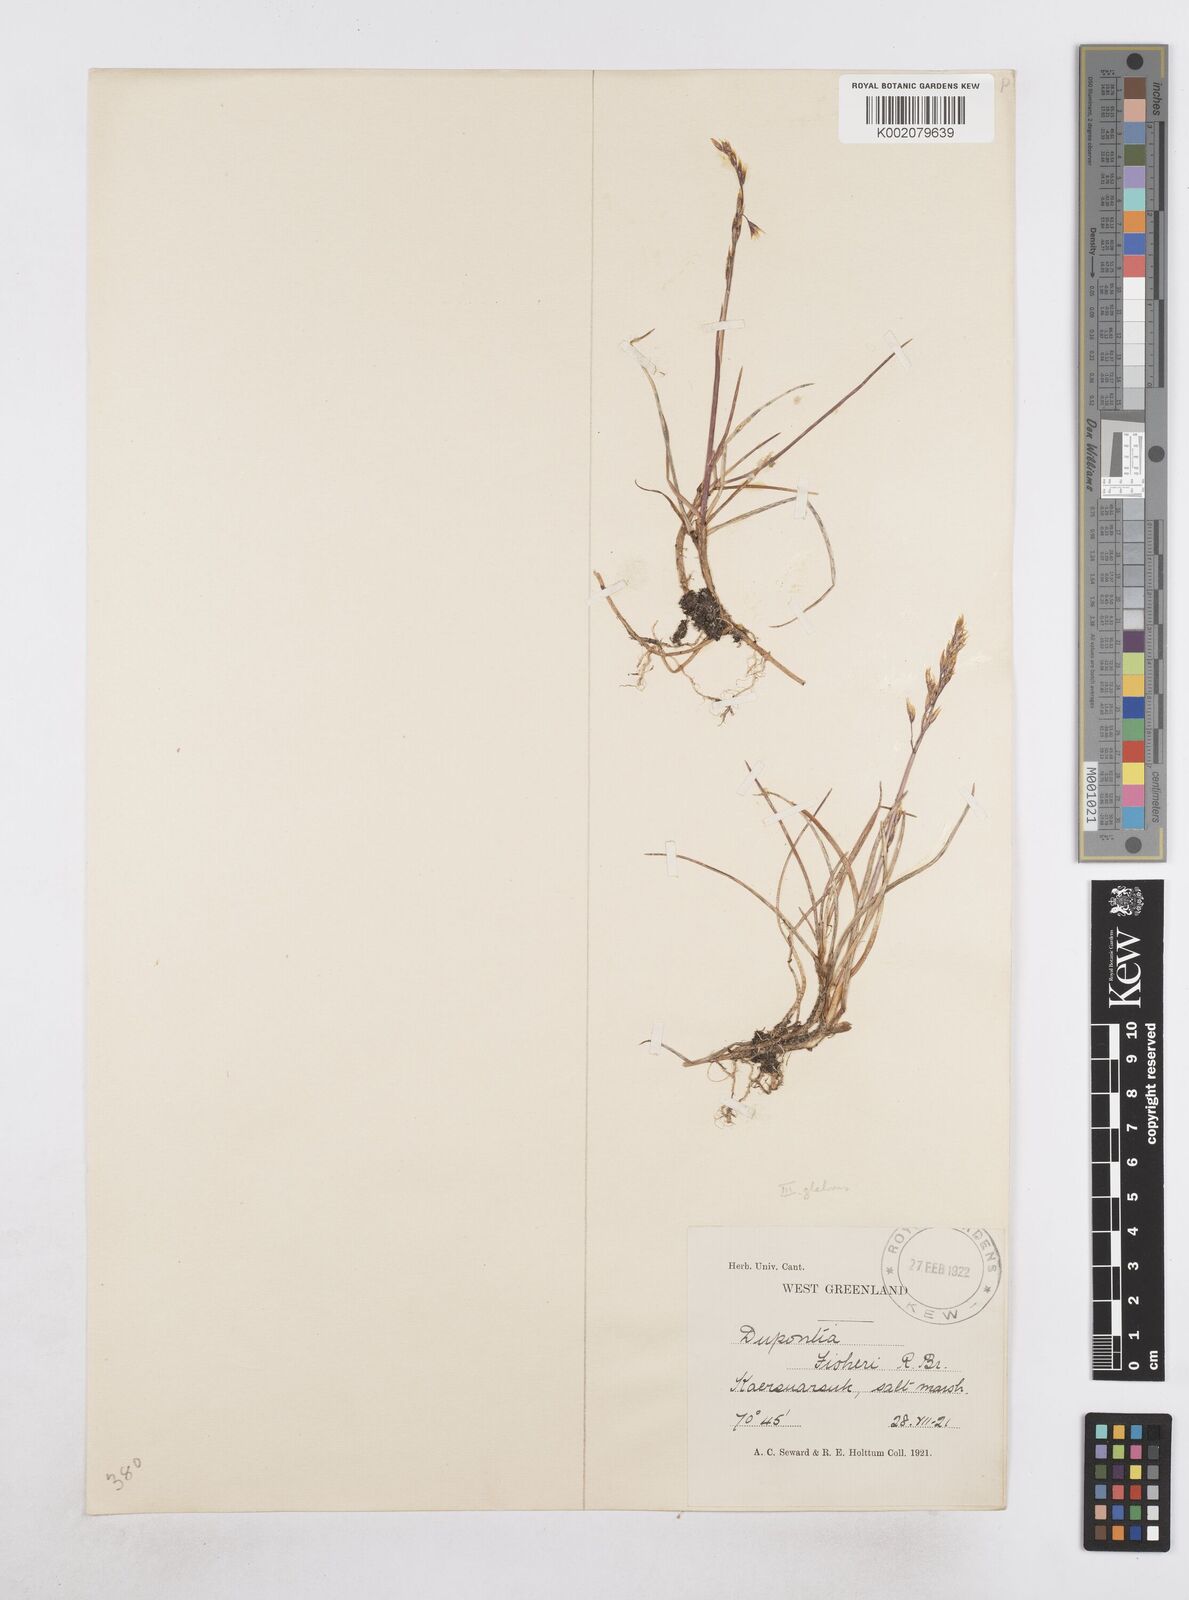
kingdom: Plantae
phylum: Tracheophyta
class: Liliopsida
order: Poales
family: Poaceae
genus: Dupontia
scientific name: Dupontia fisheri
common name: Tundra grass
